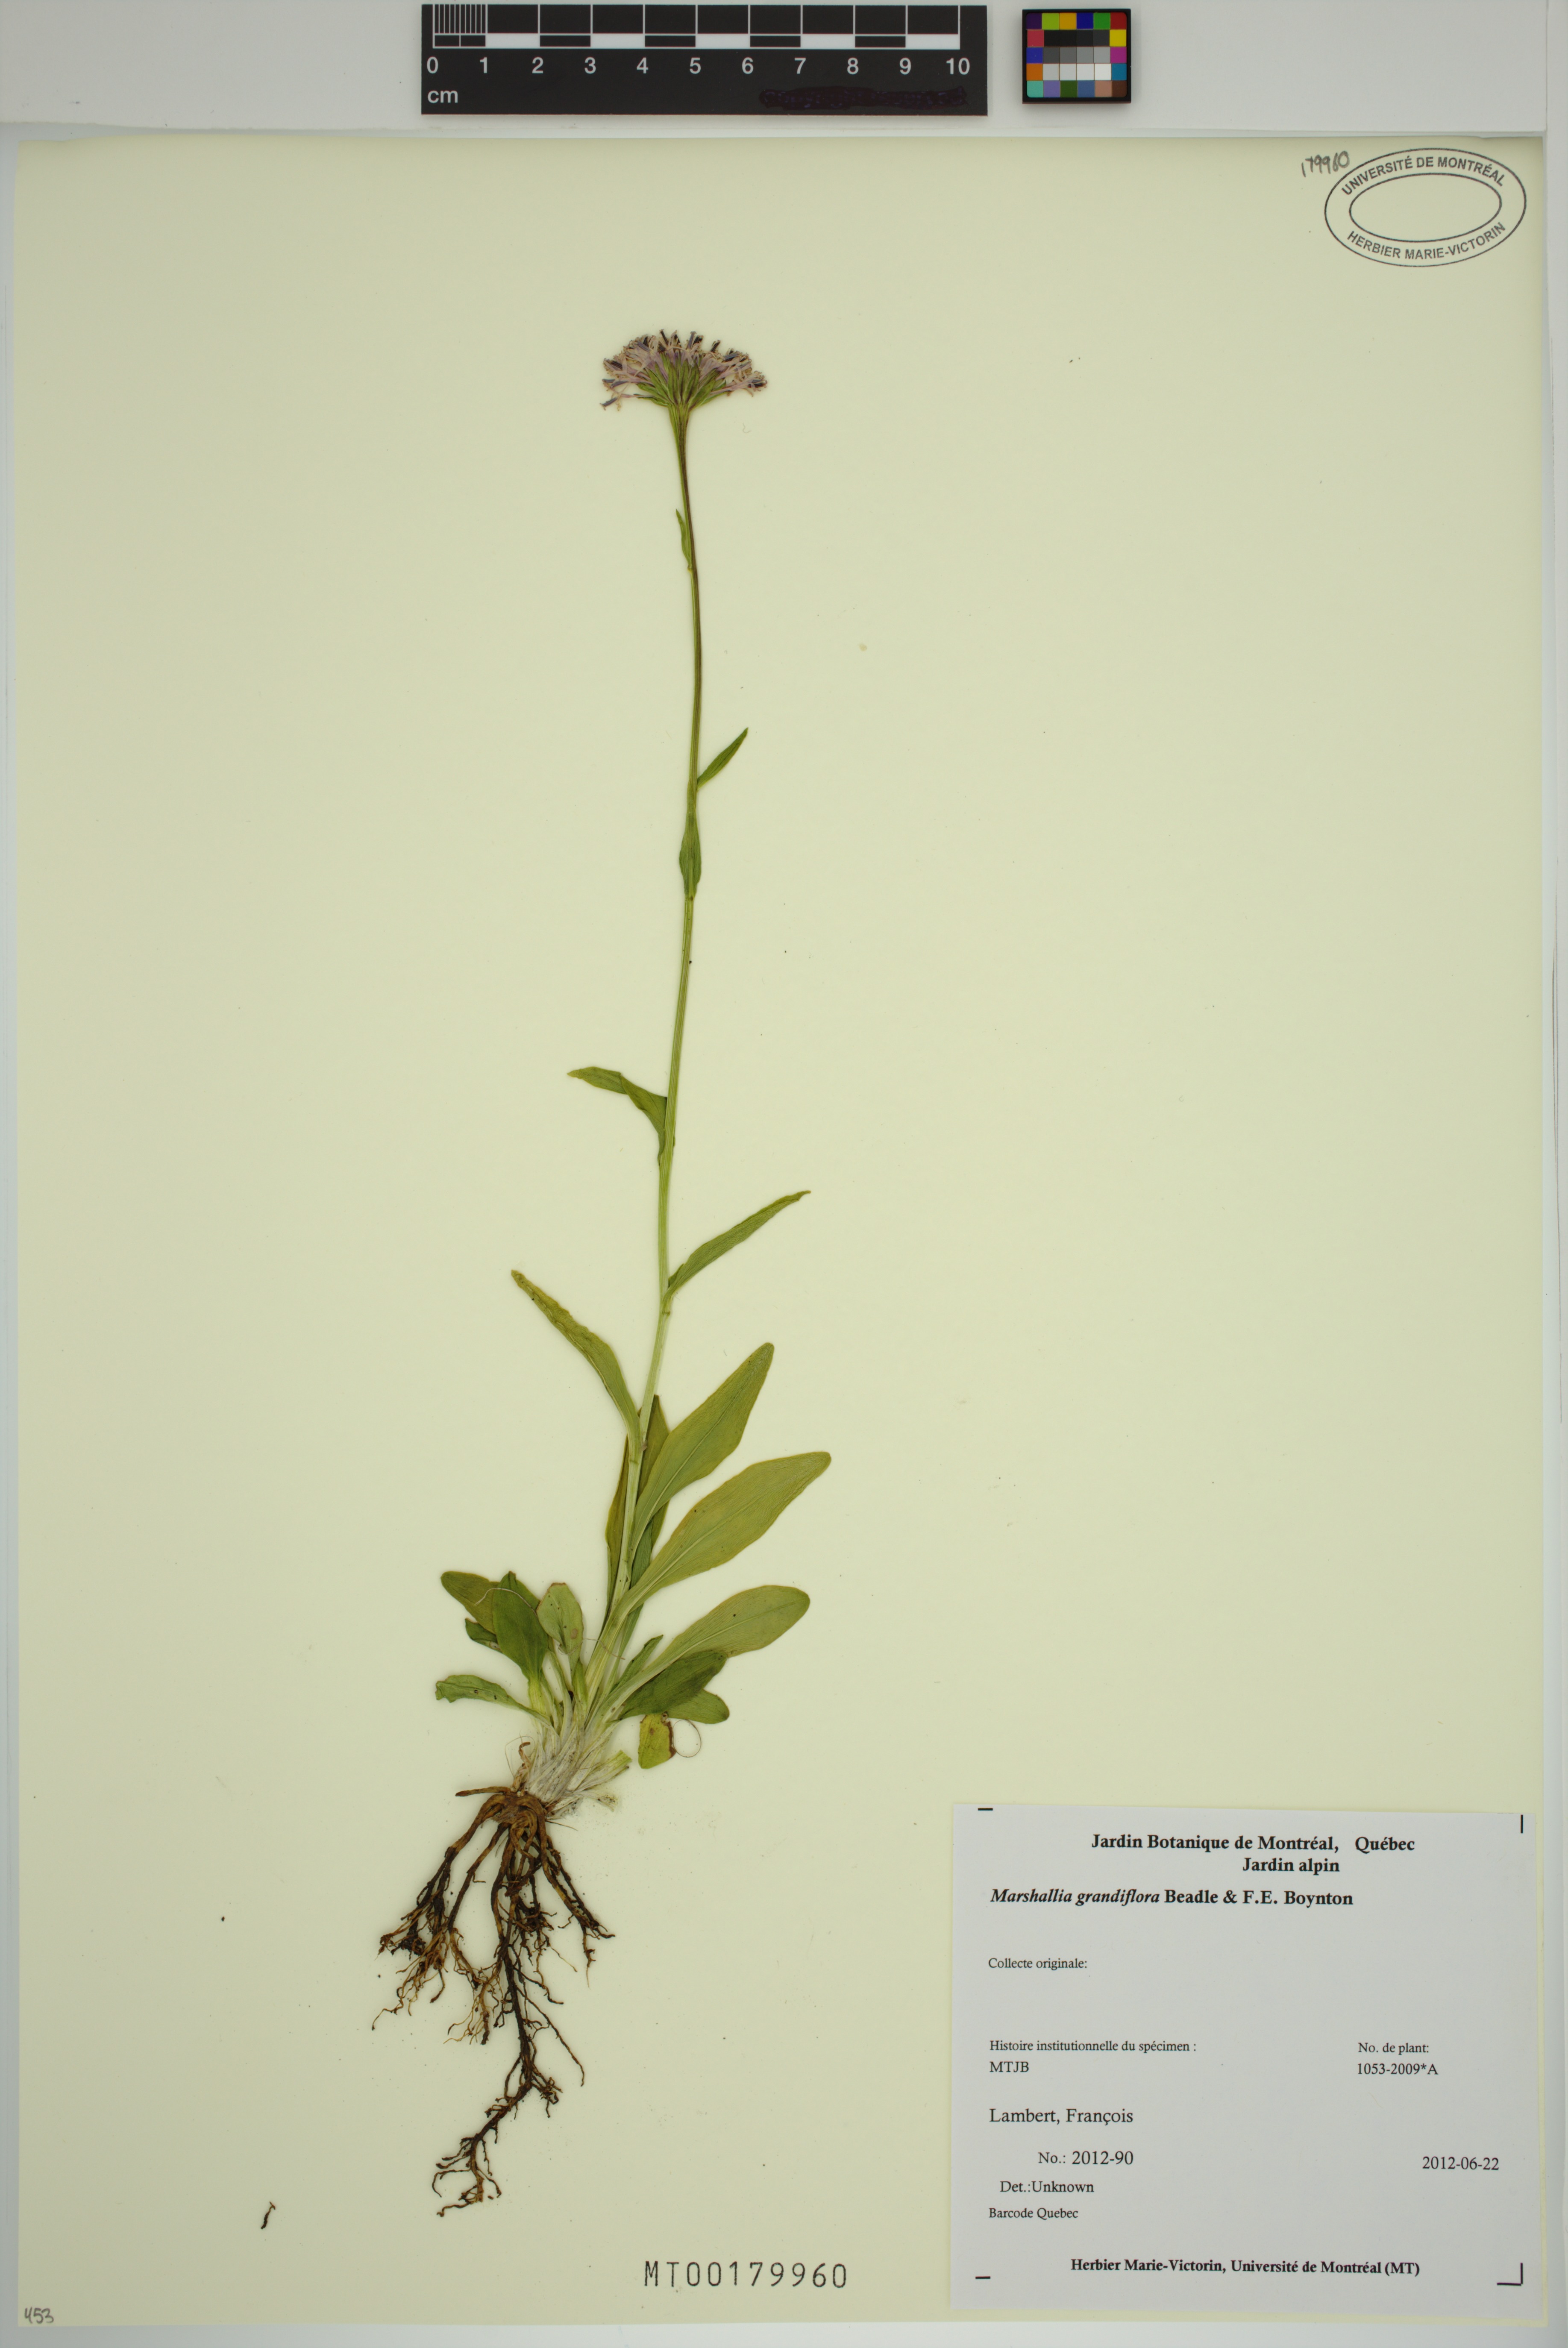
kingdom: Plantae
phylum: Tracheophyta
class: Magnoliopsida
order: Asterales
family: Asteraceae
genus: Marshallia
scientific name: Marshallia grandiflora
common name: Barbara's buttons
